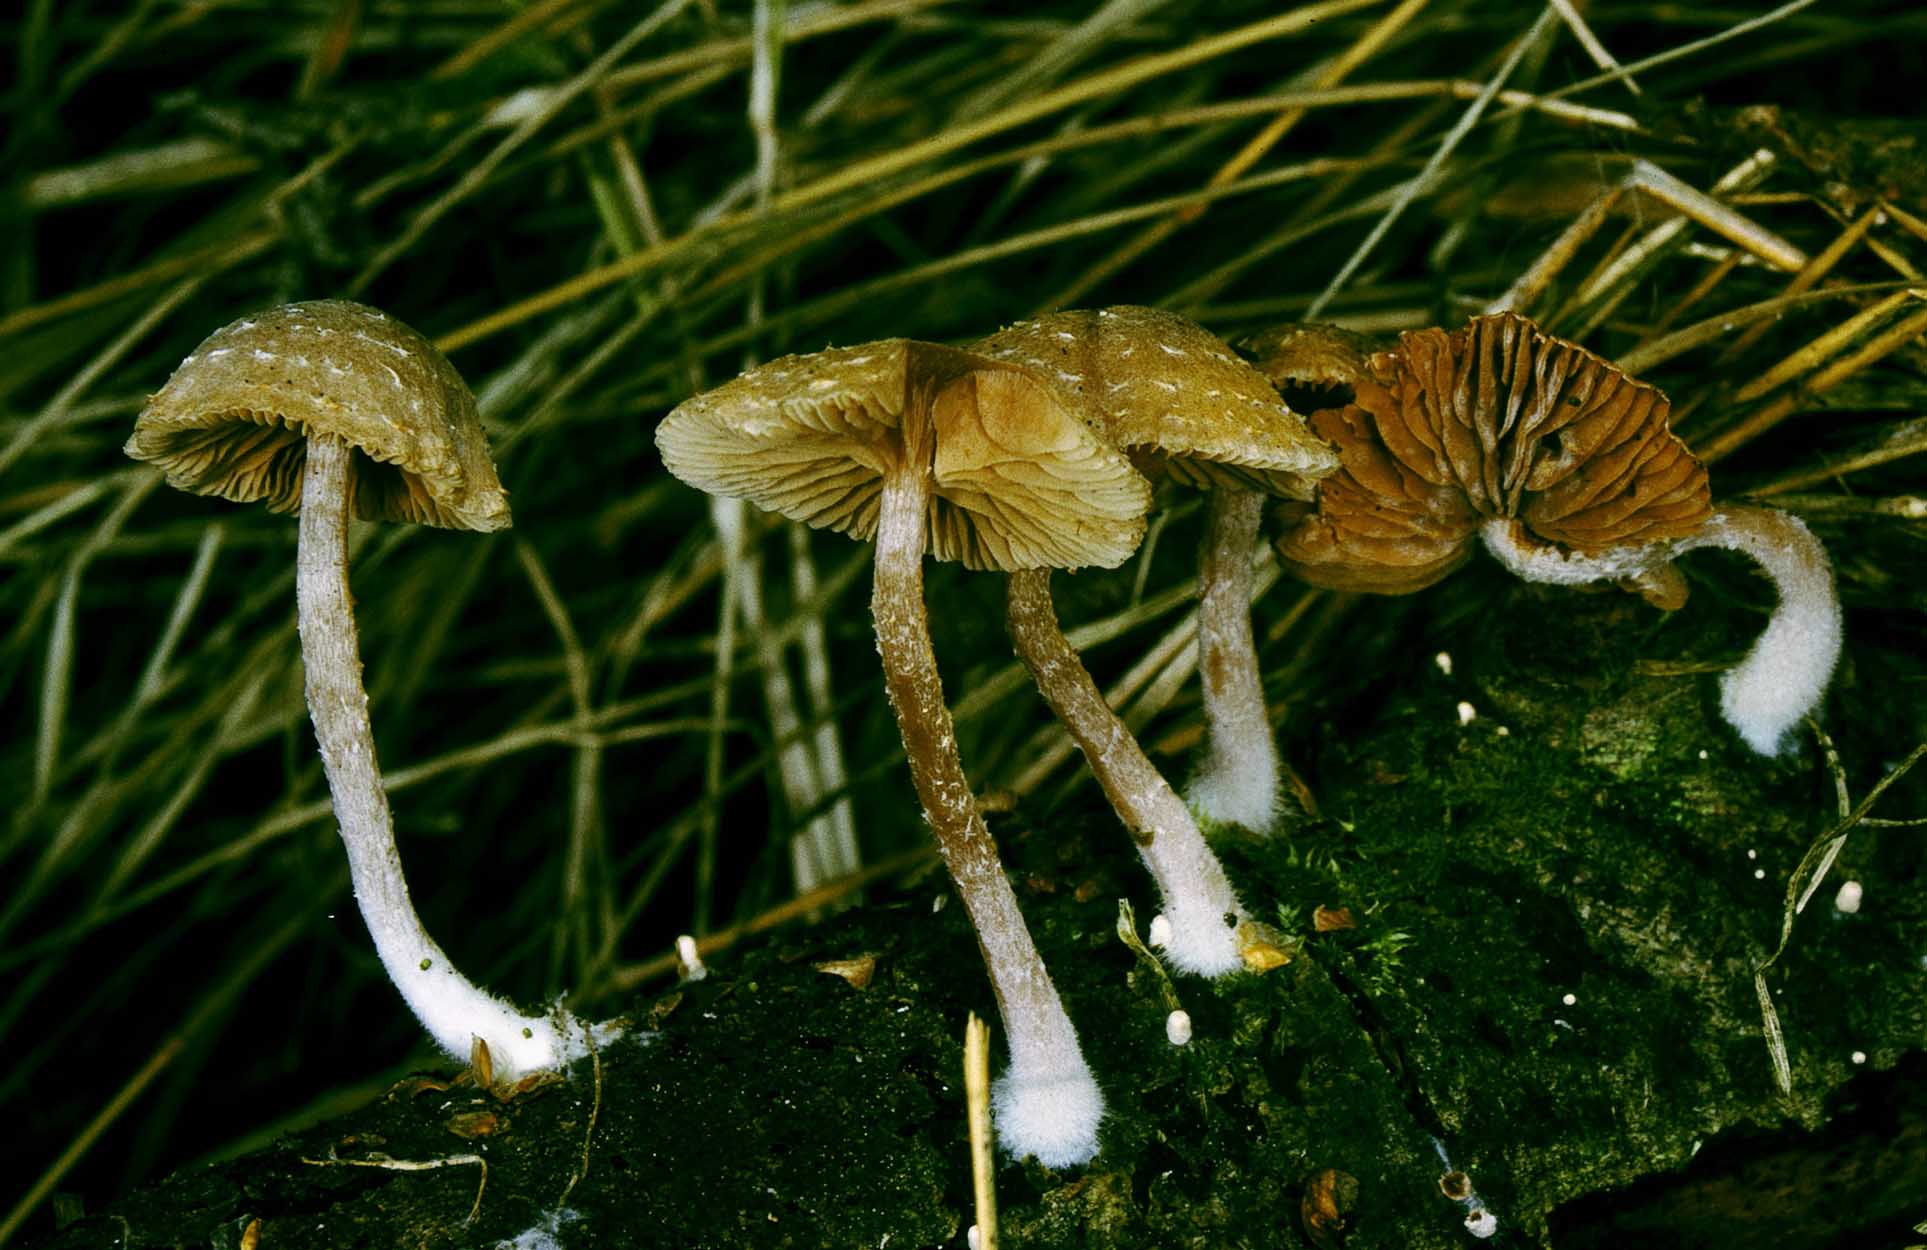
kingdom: Fungi
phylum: Basidiomycota
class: Agaricomycetes
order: Agaricales
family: Tubariaceae
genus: Tubaria
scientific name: Tubaria conspersa
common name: bleg fnughat
